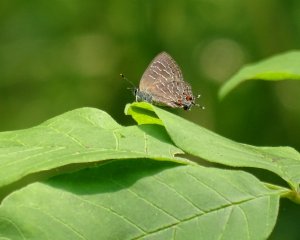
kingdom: Animalia
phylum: Arthropoda
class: Insecta
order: Lepidoptera
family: Lycaenidae
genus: Satyrium
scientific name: Satyrium liparops
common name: Striped Hairstreak
